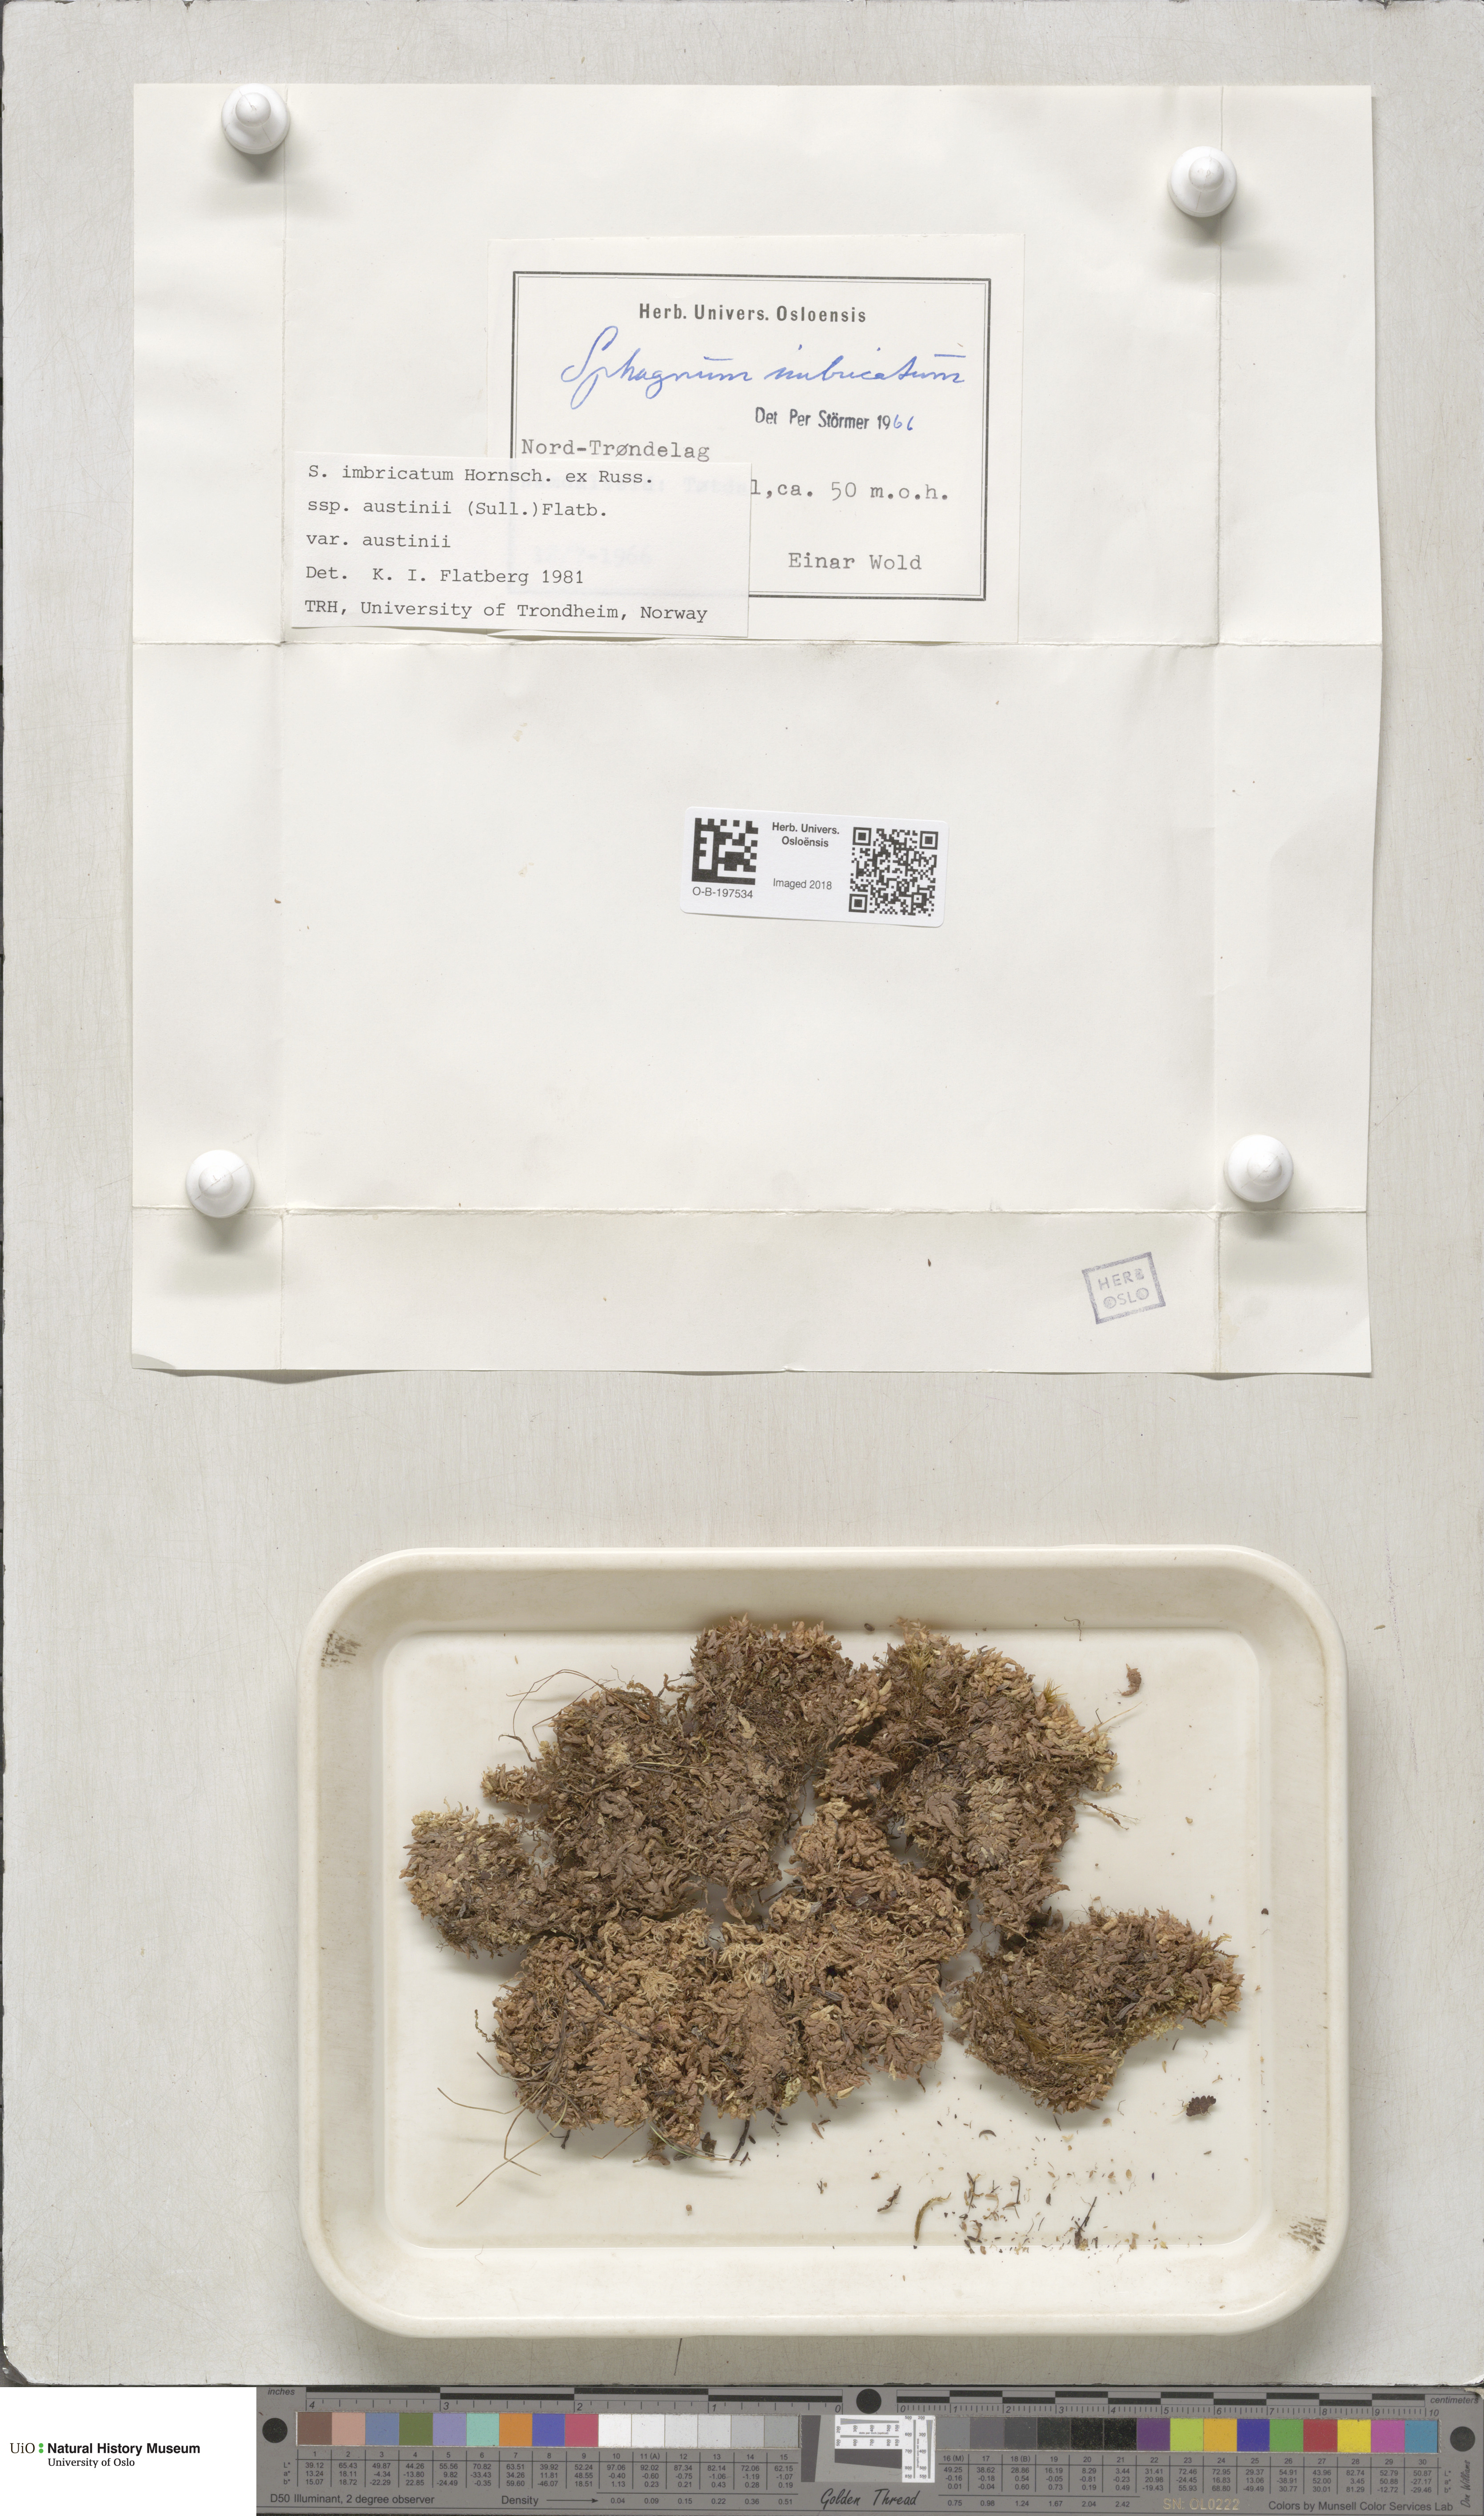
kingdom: Plantae
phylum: Bryophyta
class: Sphagnopsida
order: Sphagnales
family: Sphagnaceae
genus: Sphagnum
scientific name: Sphagnum austinii
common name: Austin's peat moss
